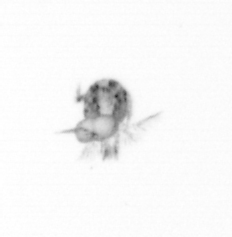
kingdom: Animalia
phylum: Arthropoda
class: Copepoda
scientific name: Copepoda
